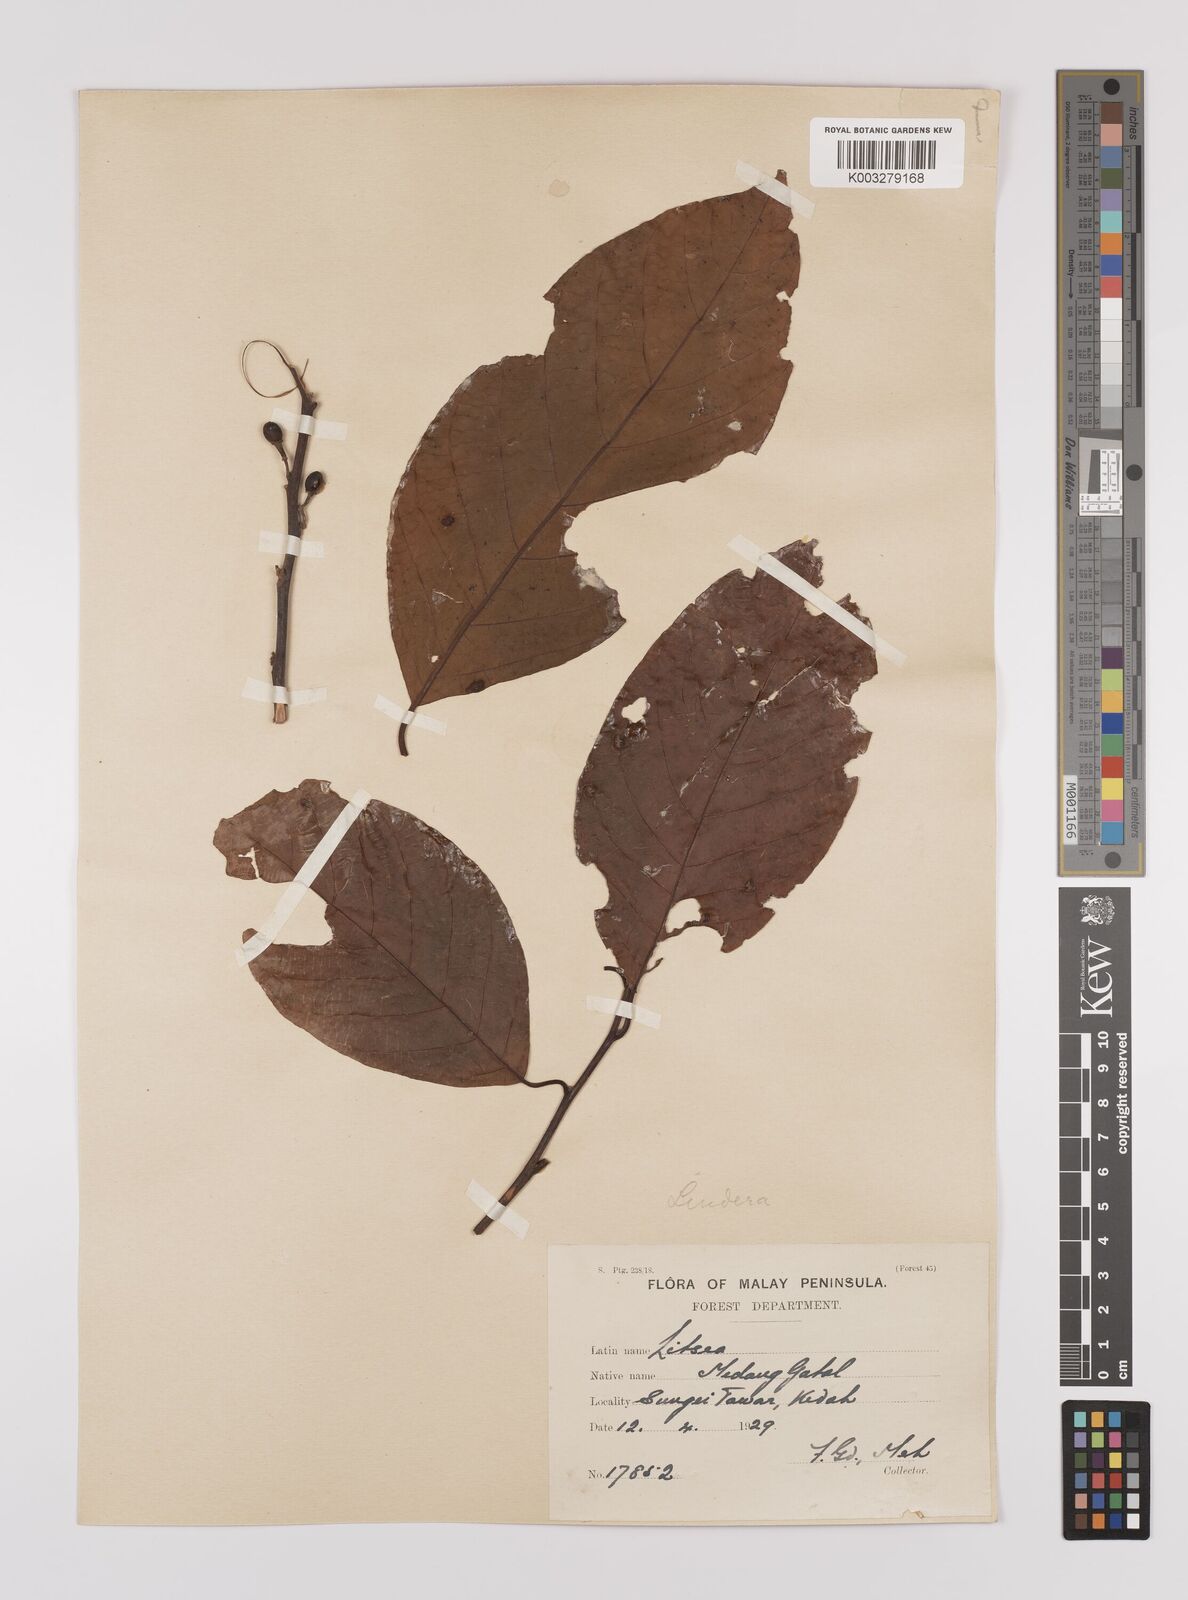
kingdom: Plantae
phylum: Tracheophyta
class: Magnoliopsida
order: Laurales
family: Lauraceae
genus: Litsea
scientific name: Litsea umbellata
